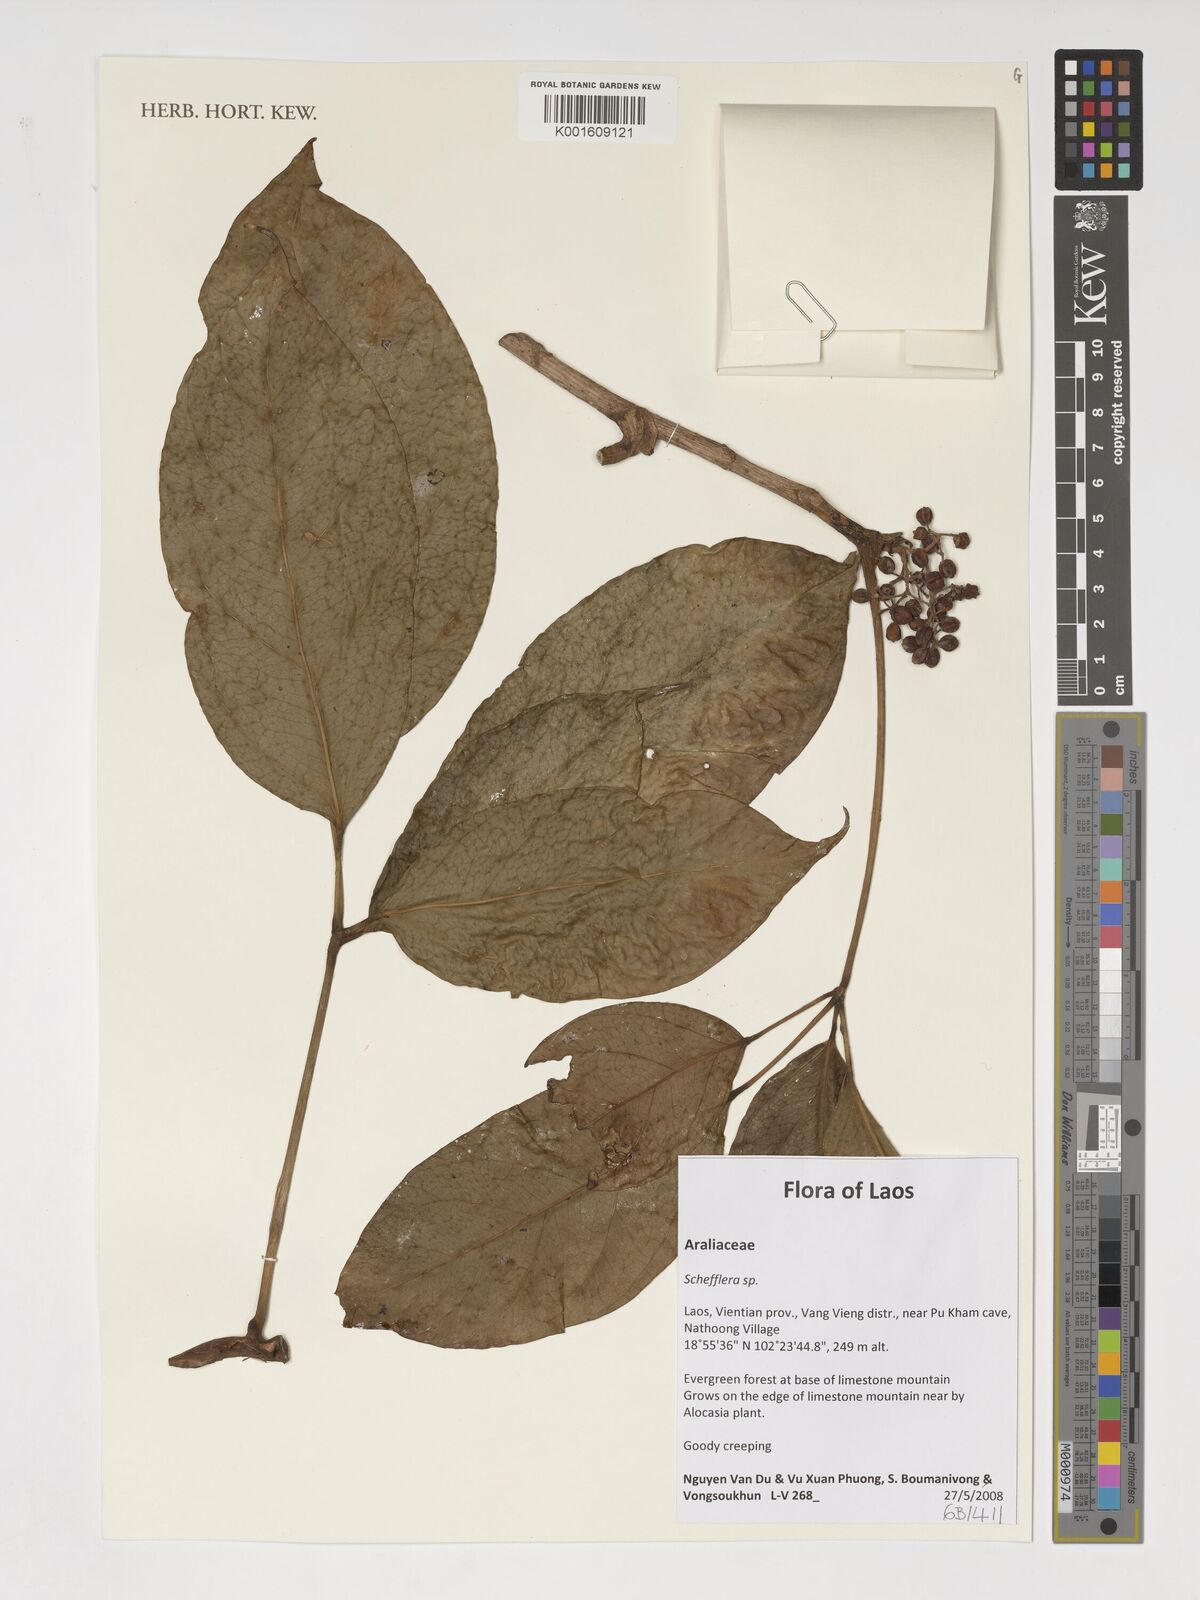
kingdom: Plantae
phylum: Tracheophyta
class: Magnoliopsida
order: Apiales
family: Araliaceae
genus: Schefflera
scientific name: Schefflera
